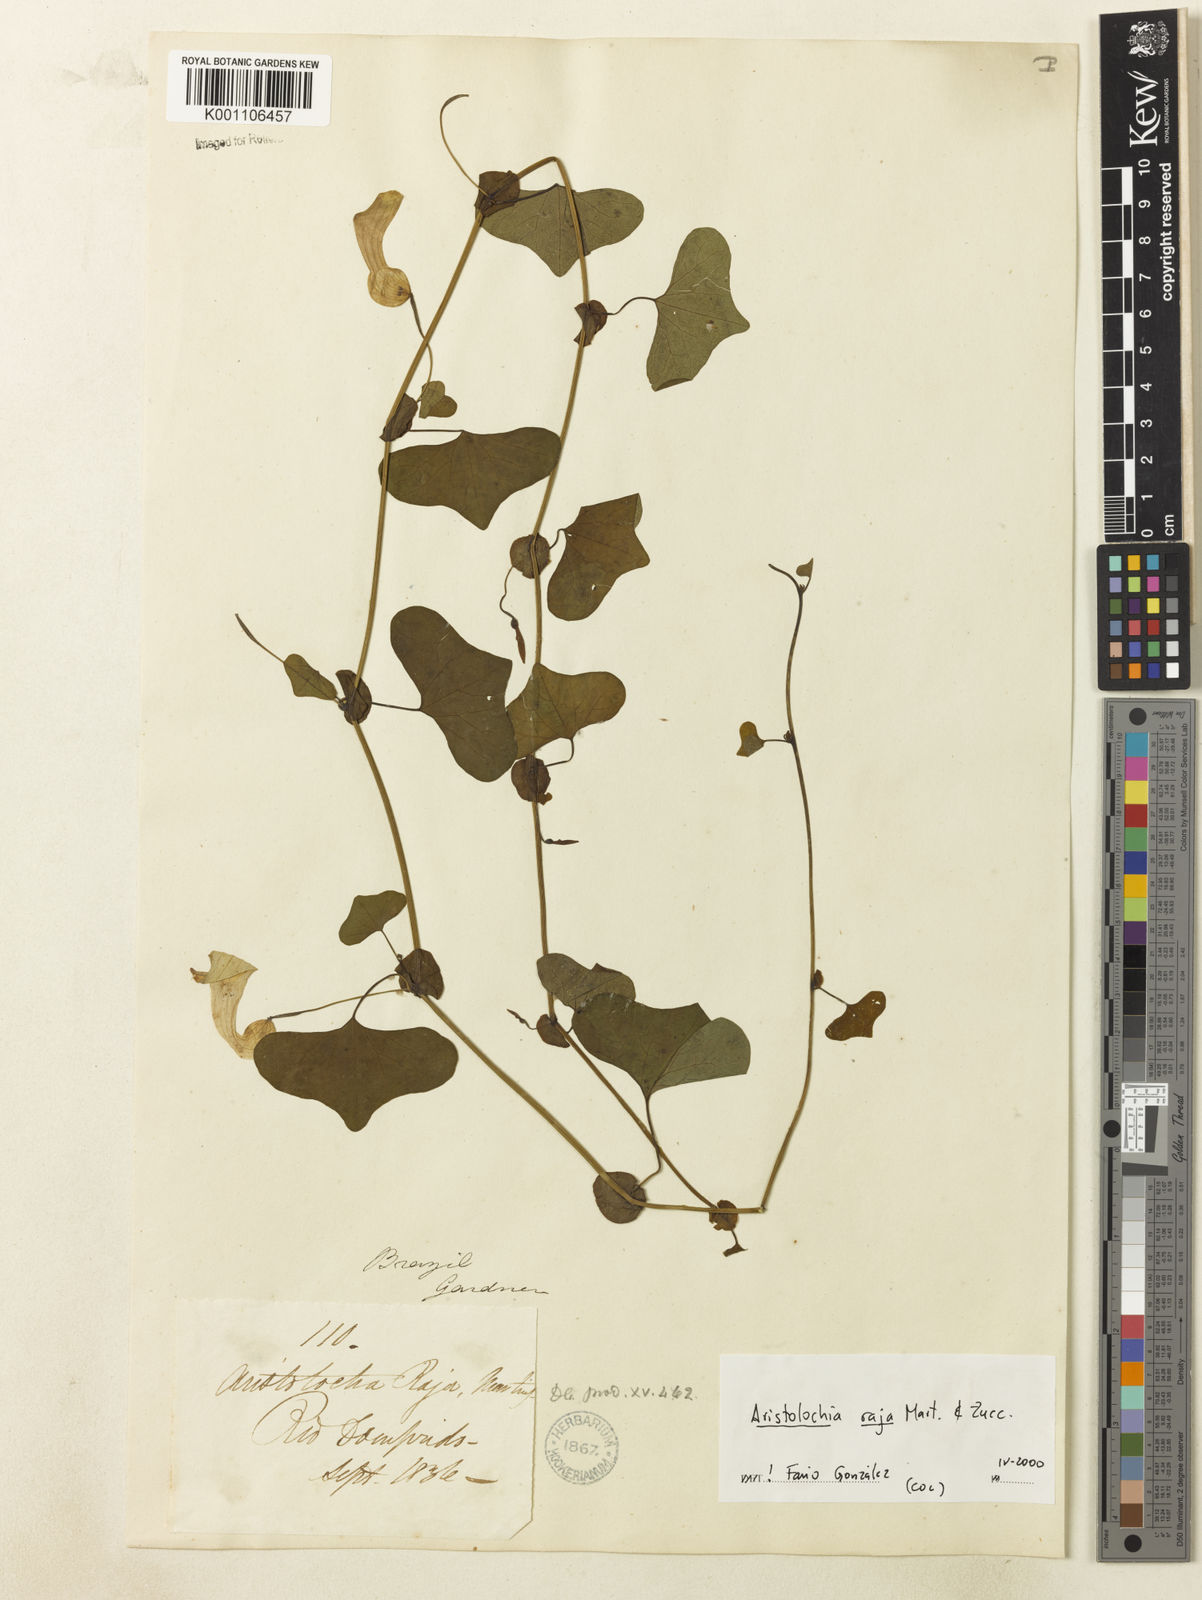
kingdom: Plantae
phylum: Tracheophyta
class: Magnoliopsida
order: Piperales
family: Aristolochiaceae
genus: Aristolochia
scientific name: Aristolochia raja
